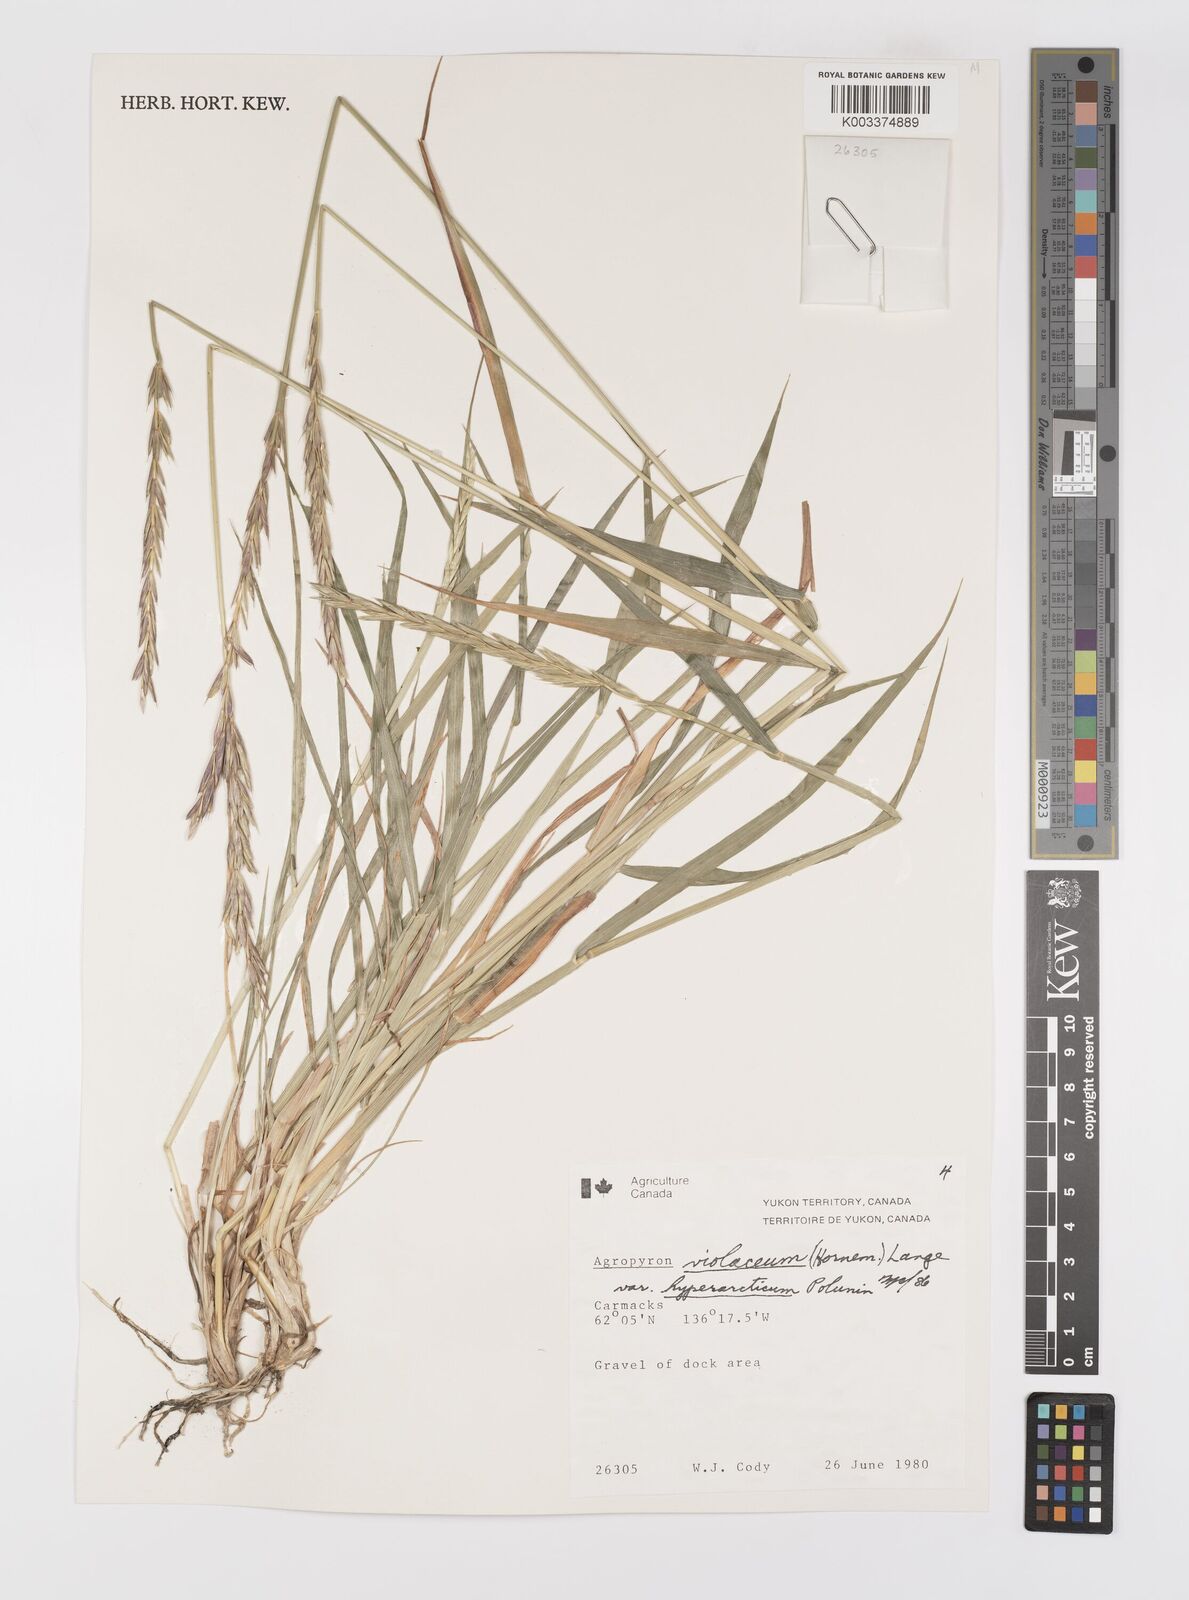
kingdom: Plantae
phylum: Tracheophyta
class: Liliopsida
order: Poales
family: Poaceae
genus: Elymus
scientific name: Elymus violaceus
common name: Arctic wheatgrass
